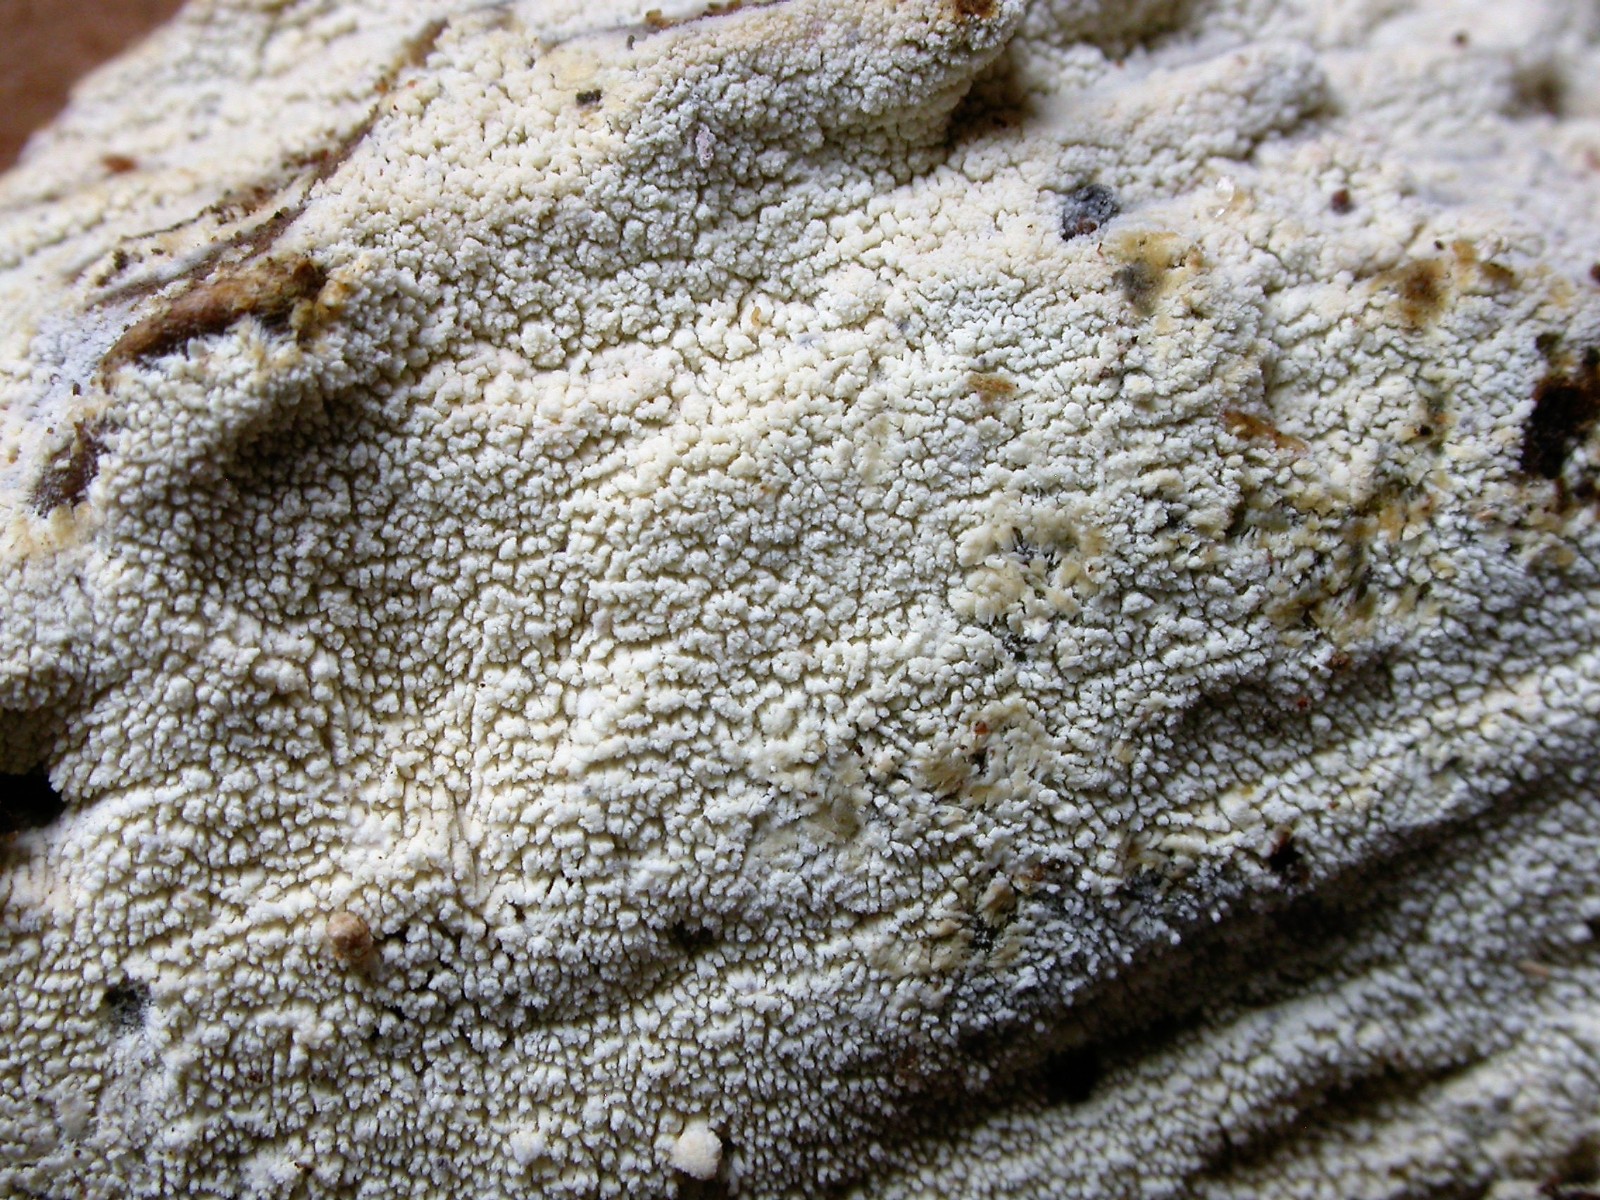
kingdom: Fungi
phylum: Basidiomycota
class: Agaricomycetes
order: Trechisporales
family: Sistotremataceae
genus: Trechispora
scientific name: Trechispora
